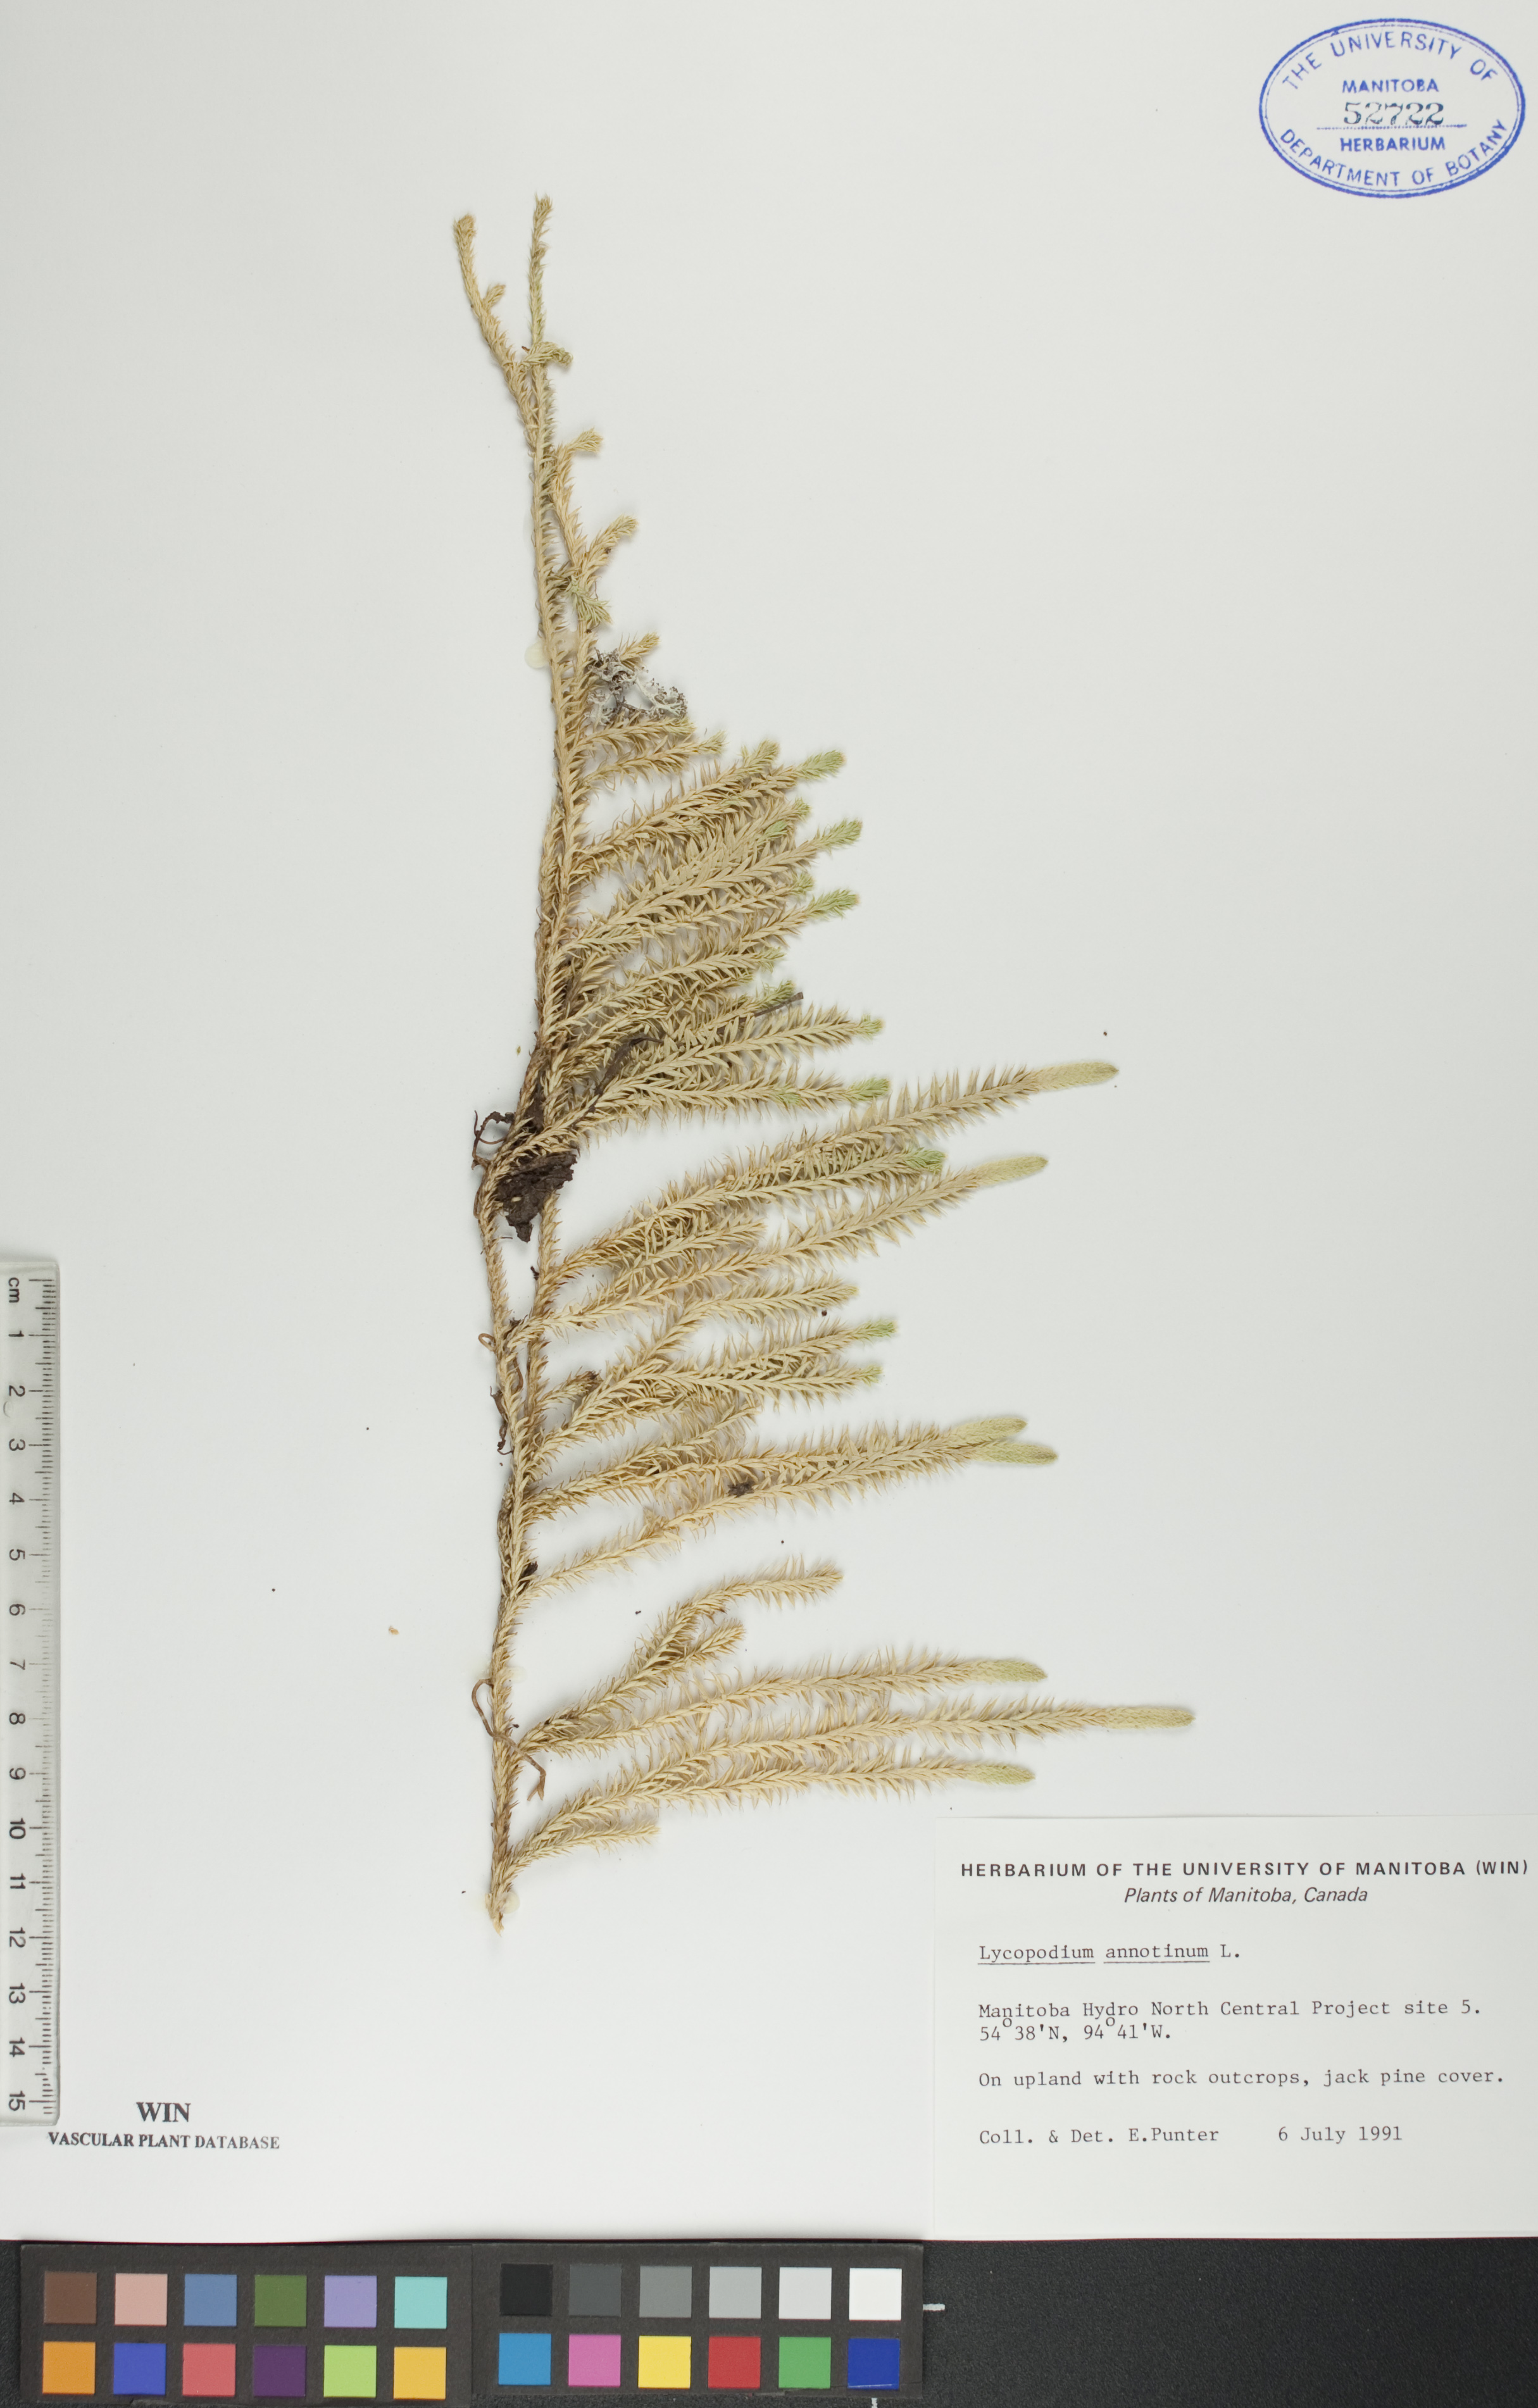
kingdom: Plantae
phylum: Tracheophyta
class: Lycopodiopsida
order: Lycopodiales
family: Lycopodiaceae
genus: Spinulum
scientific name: Spinulum annotinum
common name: Interrupted club-moss
